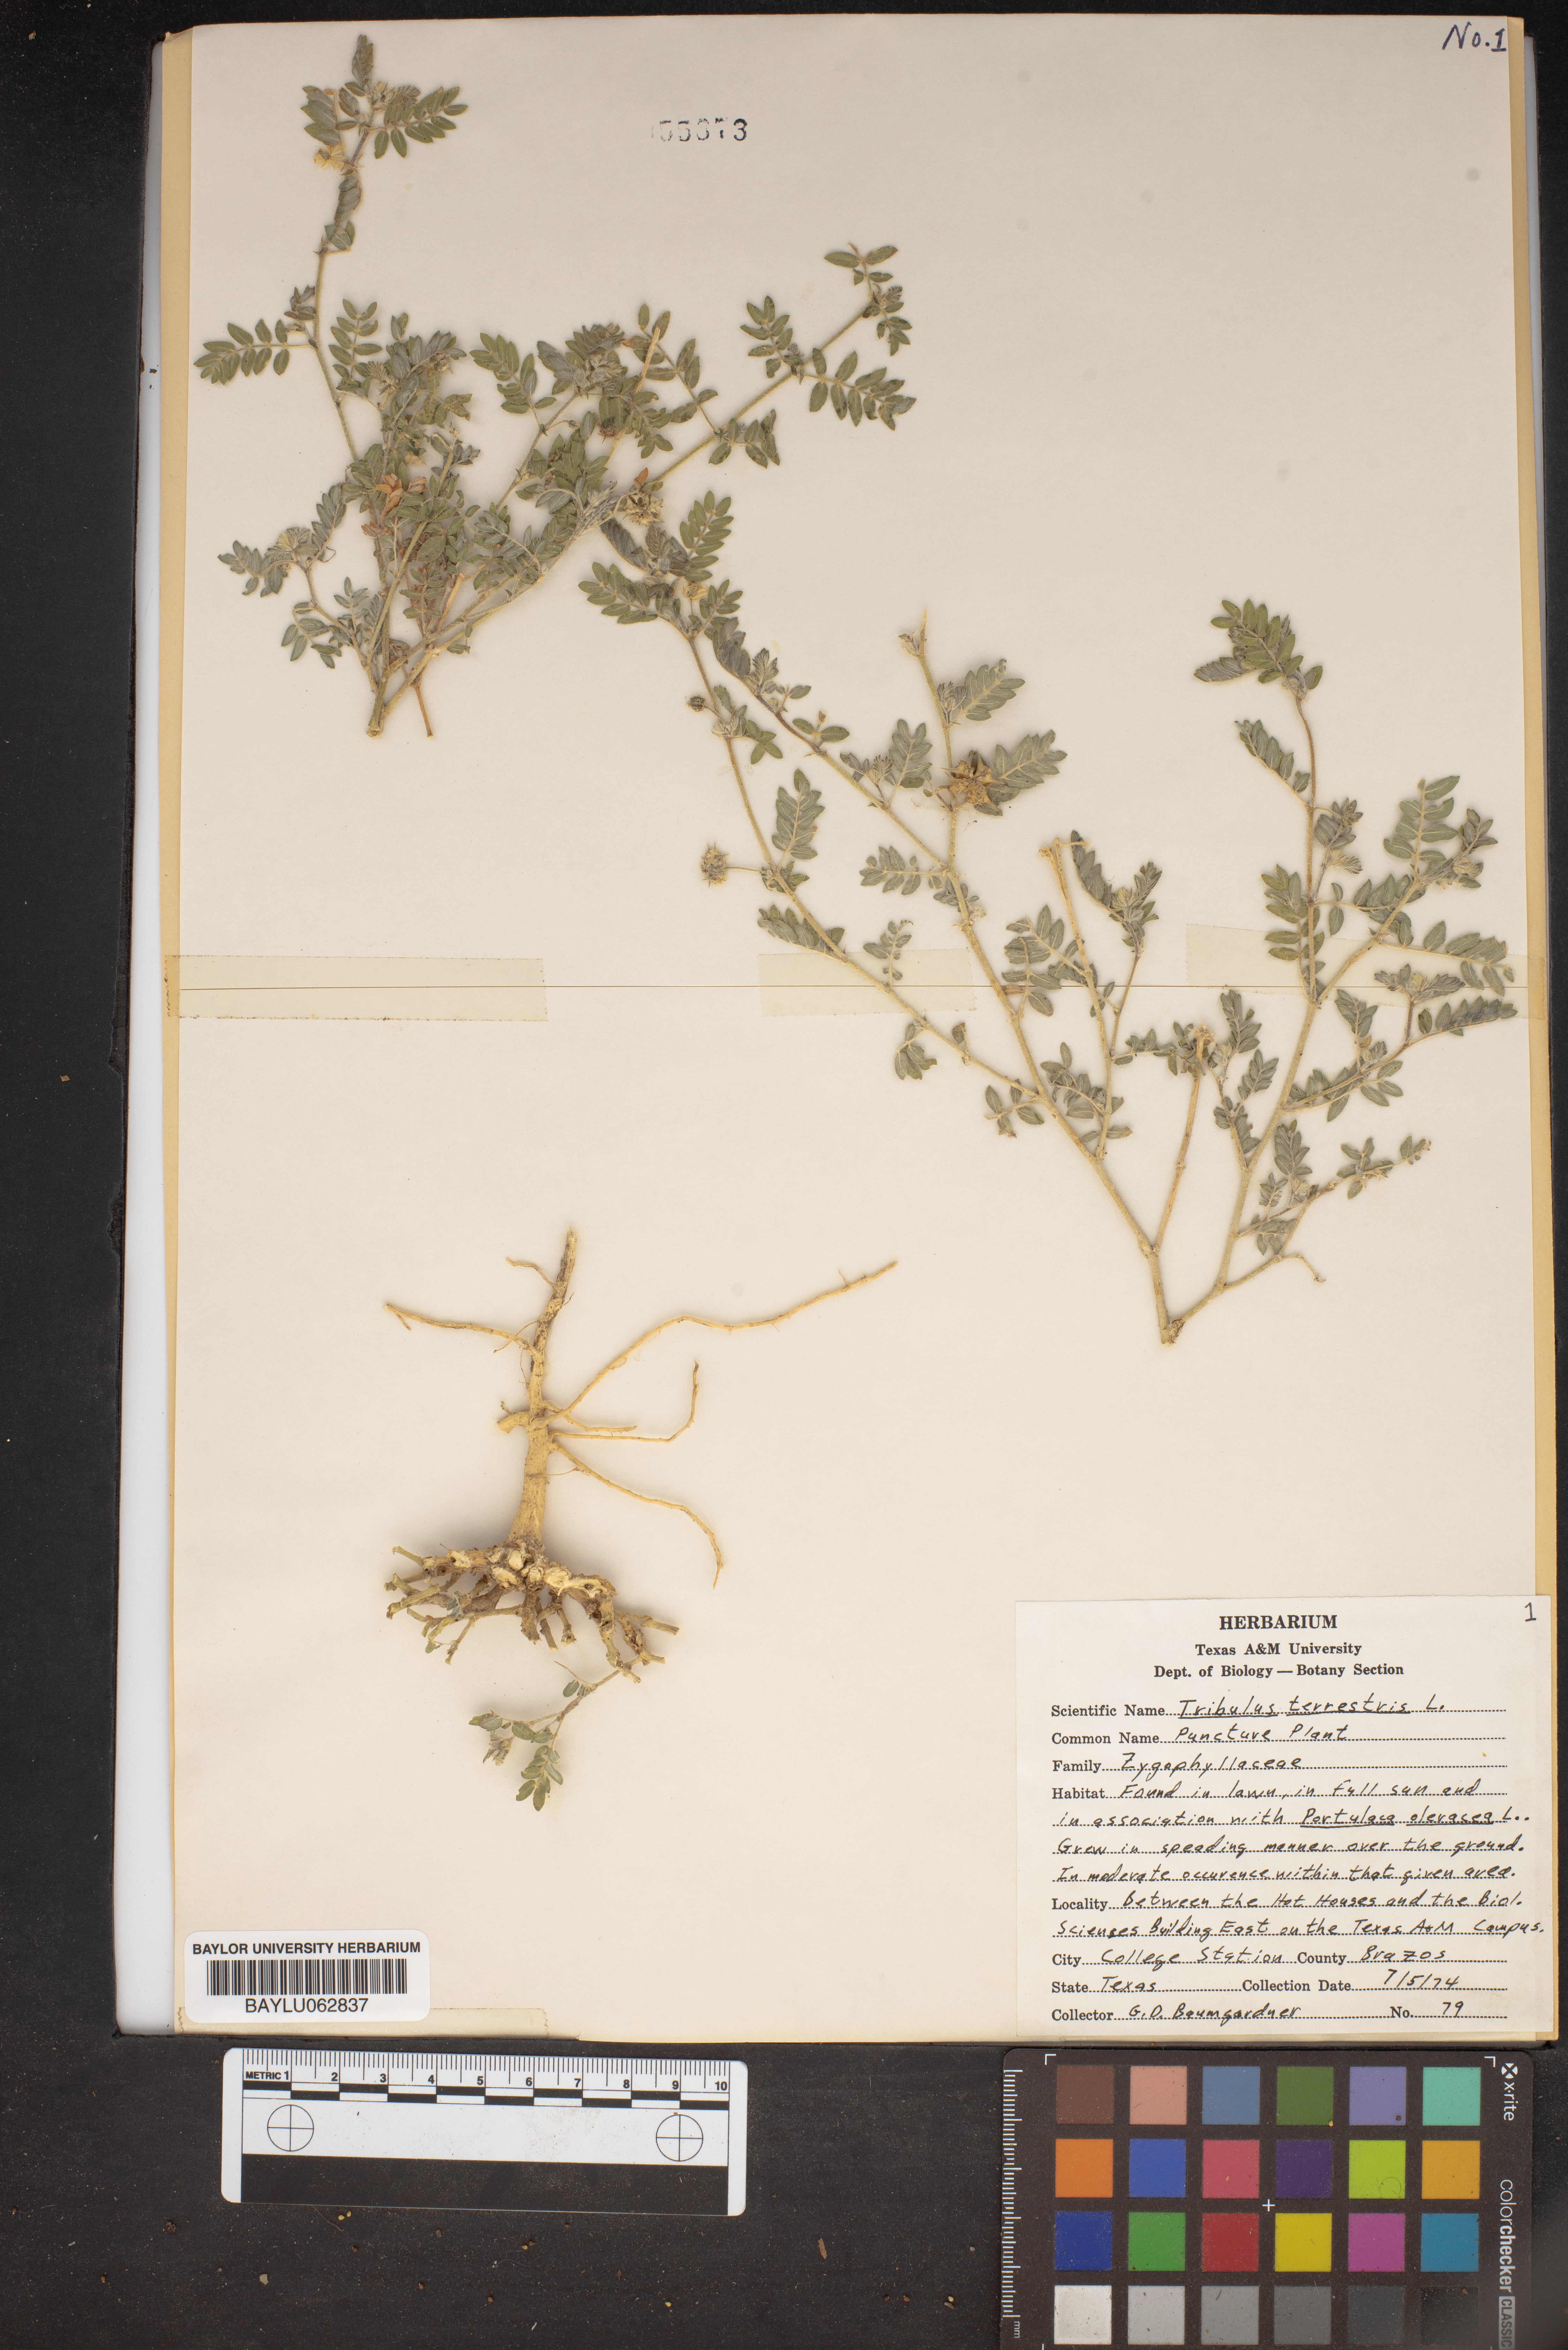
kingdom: Plantae
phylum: Tracheophyta
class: Magnoliopsida
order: Zygophyllales
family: Zygophyllaceae
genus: Tribulus
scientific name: Tribulus terrestris
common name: Puncturevine
